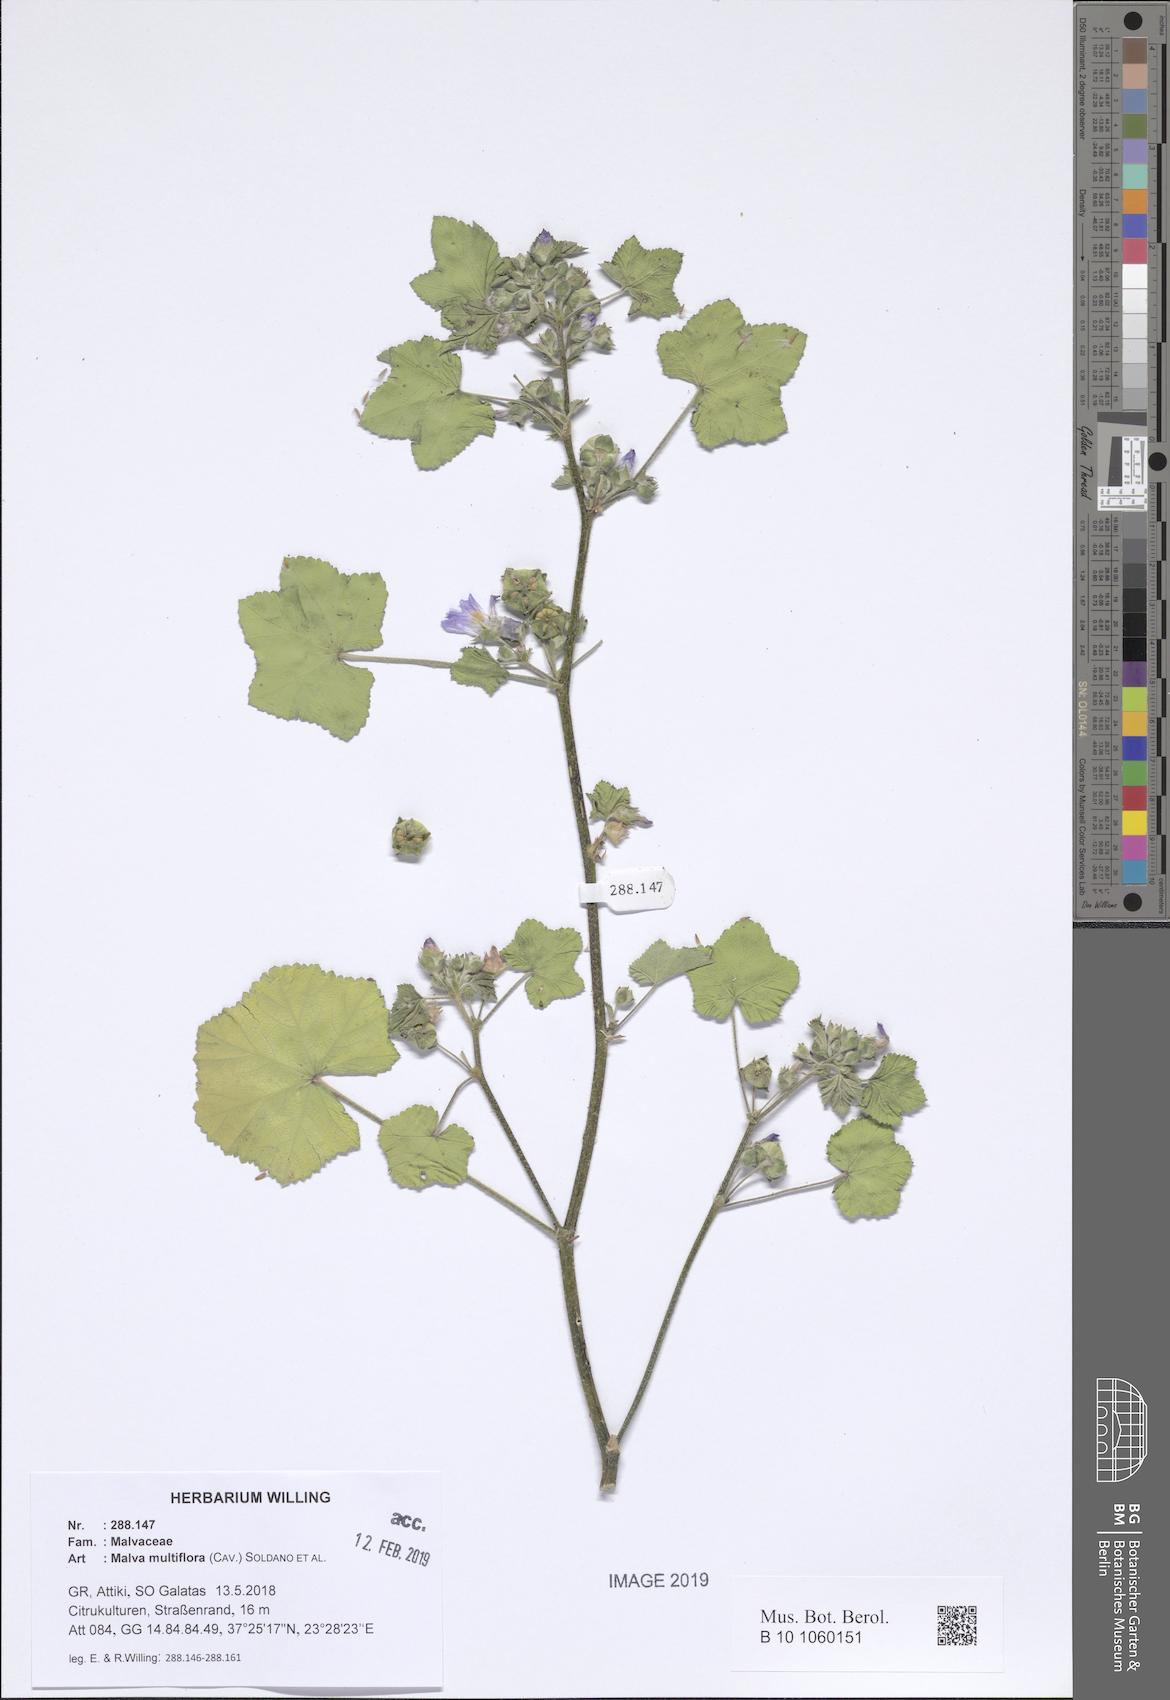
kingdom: Plantae
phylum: Tracheophyta
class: Magnoliopsida
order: Malvales
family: Malvaceae
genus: Malva
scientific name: Malva multiflora
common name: Cheeseweed
